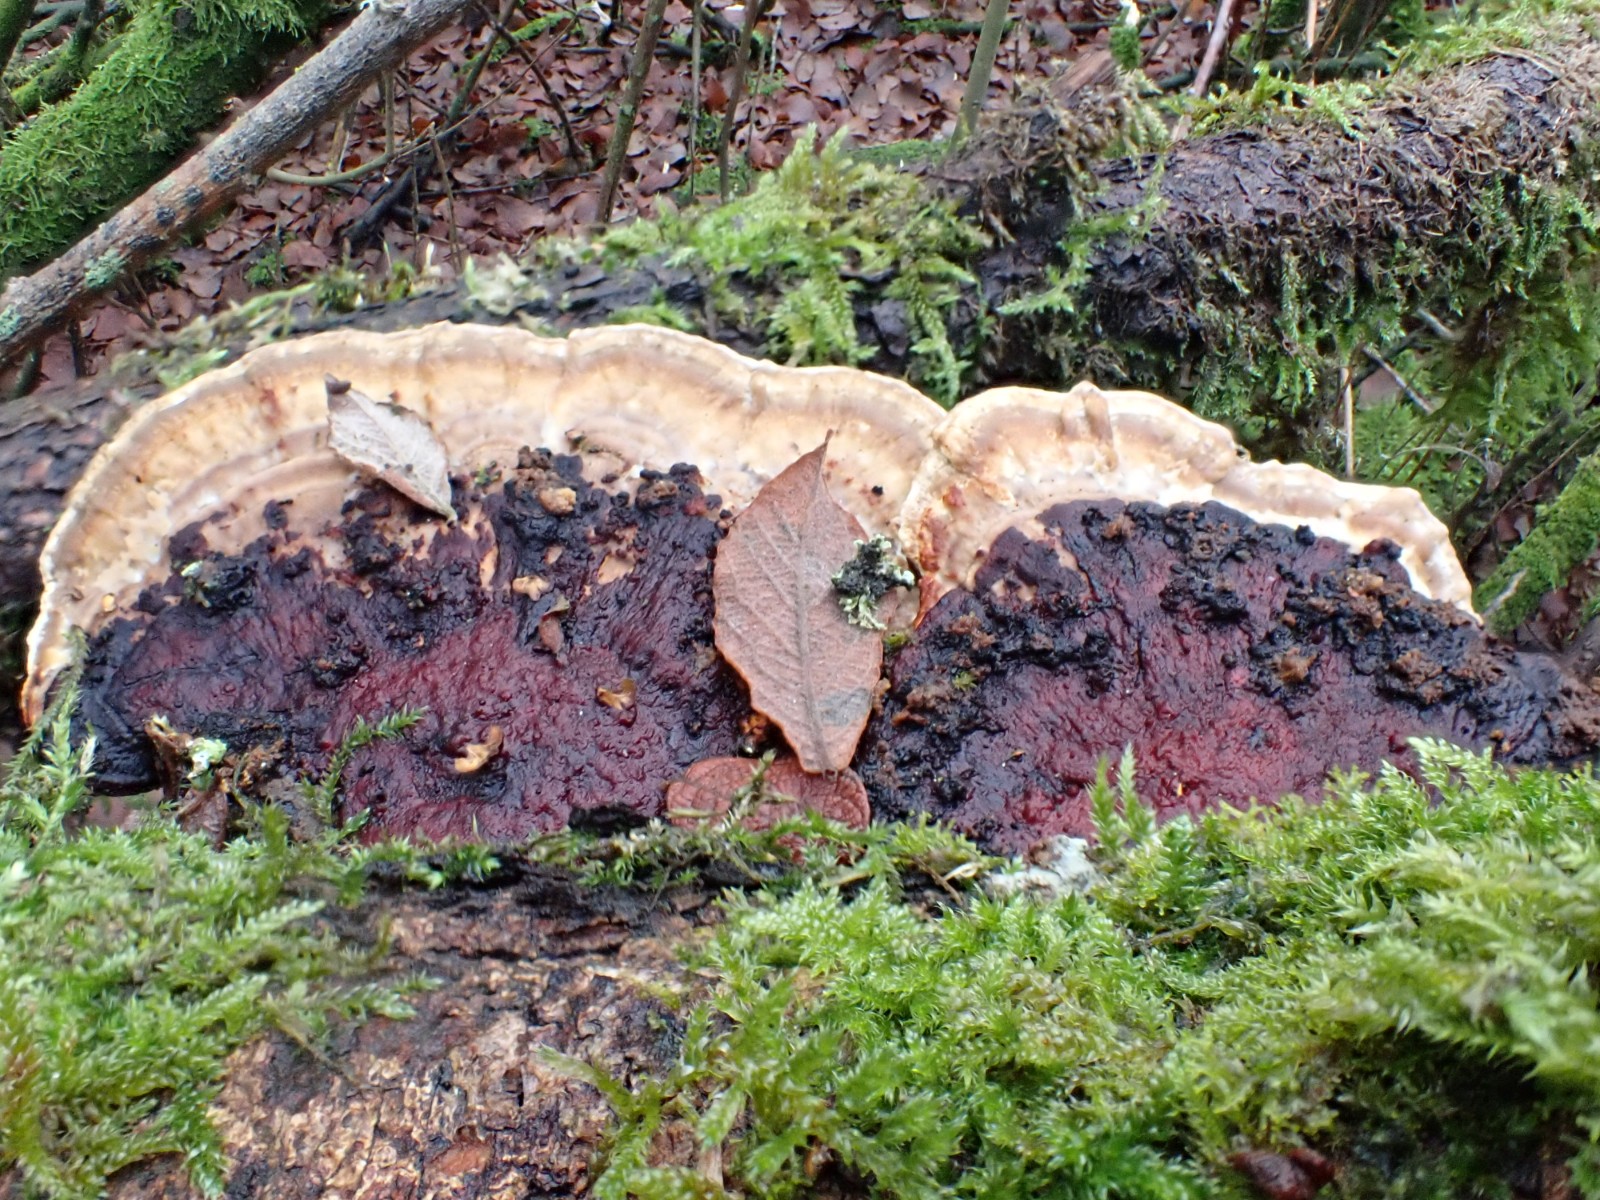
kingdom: Fungi
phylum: Basidiomycota
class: Agaricomycetes
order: Polyporales
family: Polyporaceae
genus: Daedaleopsis
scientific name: Daedaleopsis confragosa
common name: rødmende læderporesvamp
